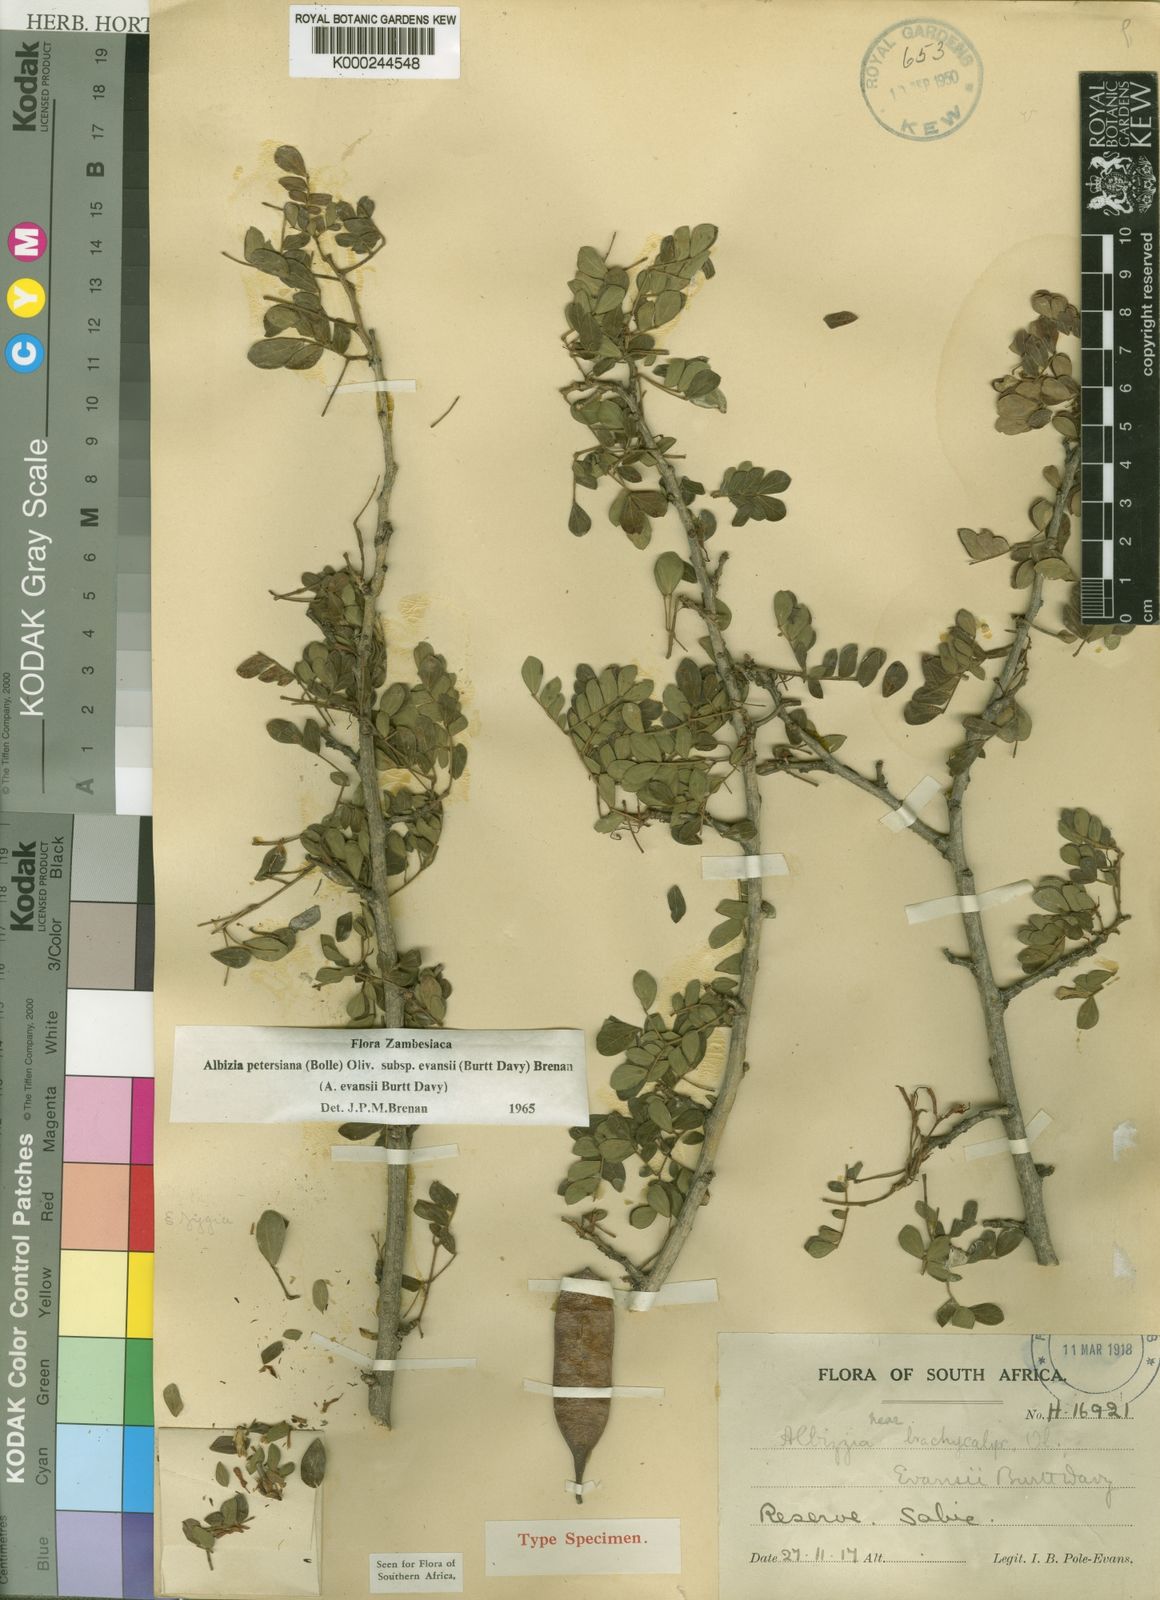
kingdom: Plantae
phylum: Tracheophyta
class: Magnoliopsida
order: Fabales
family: Fabaceae
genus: Albizia
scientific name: Albizia petersiana
